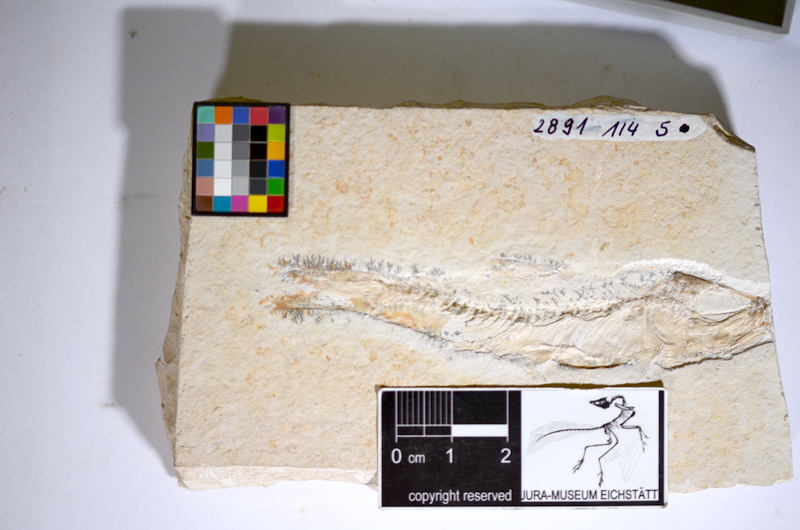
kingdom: Animalia
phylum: Chordata
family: Ascalaboidae
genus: Ascalabos
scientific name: Ascalabos voithii
